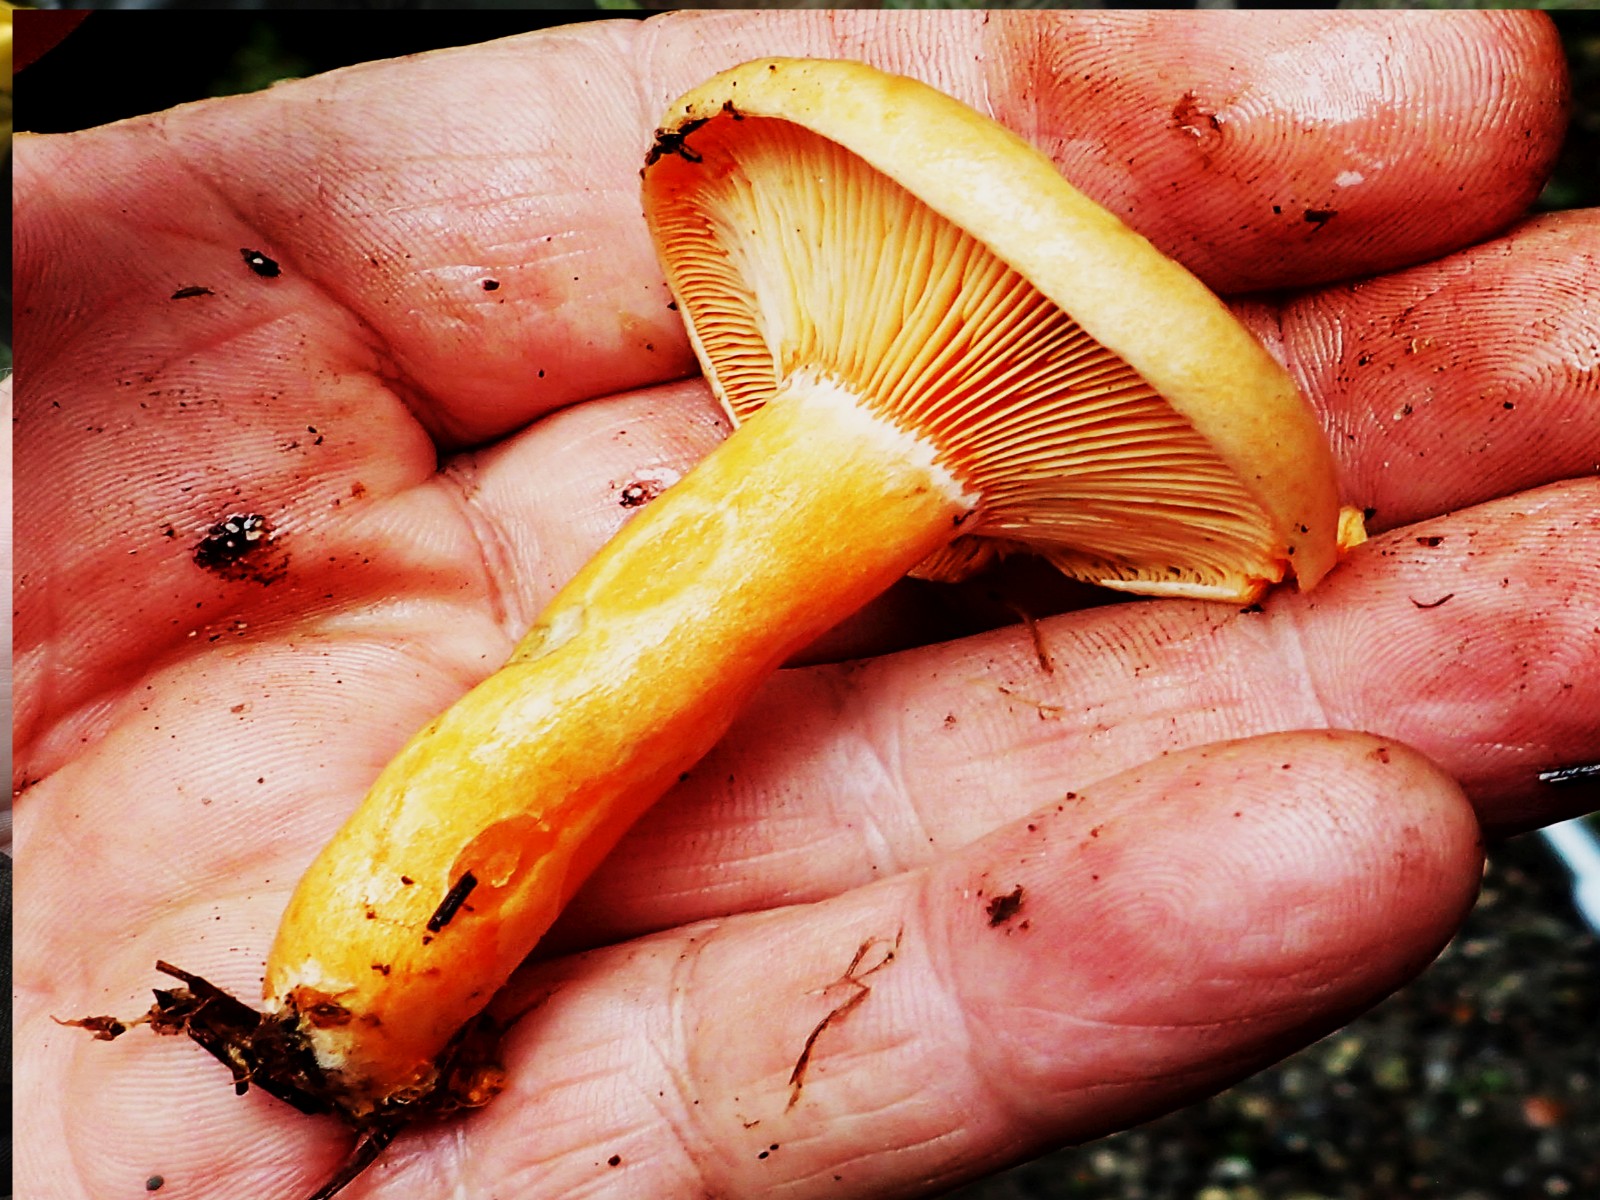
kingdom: Fungi
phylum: Basidiomycota
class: Agaricomycetes
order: Russulales
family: Russulaceae
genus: Lactarius
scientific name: Lactarius deliciosus
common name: velsmagende mælkehat
